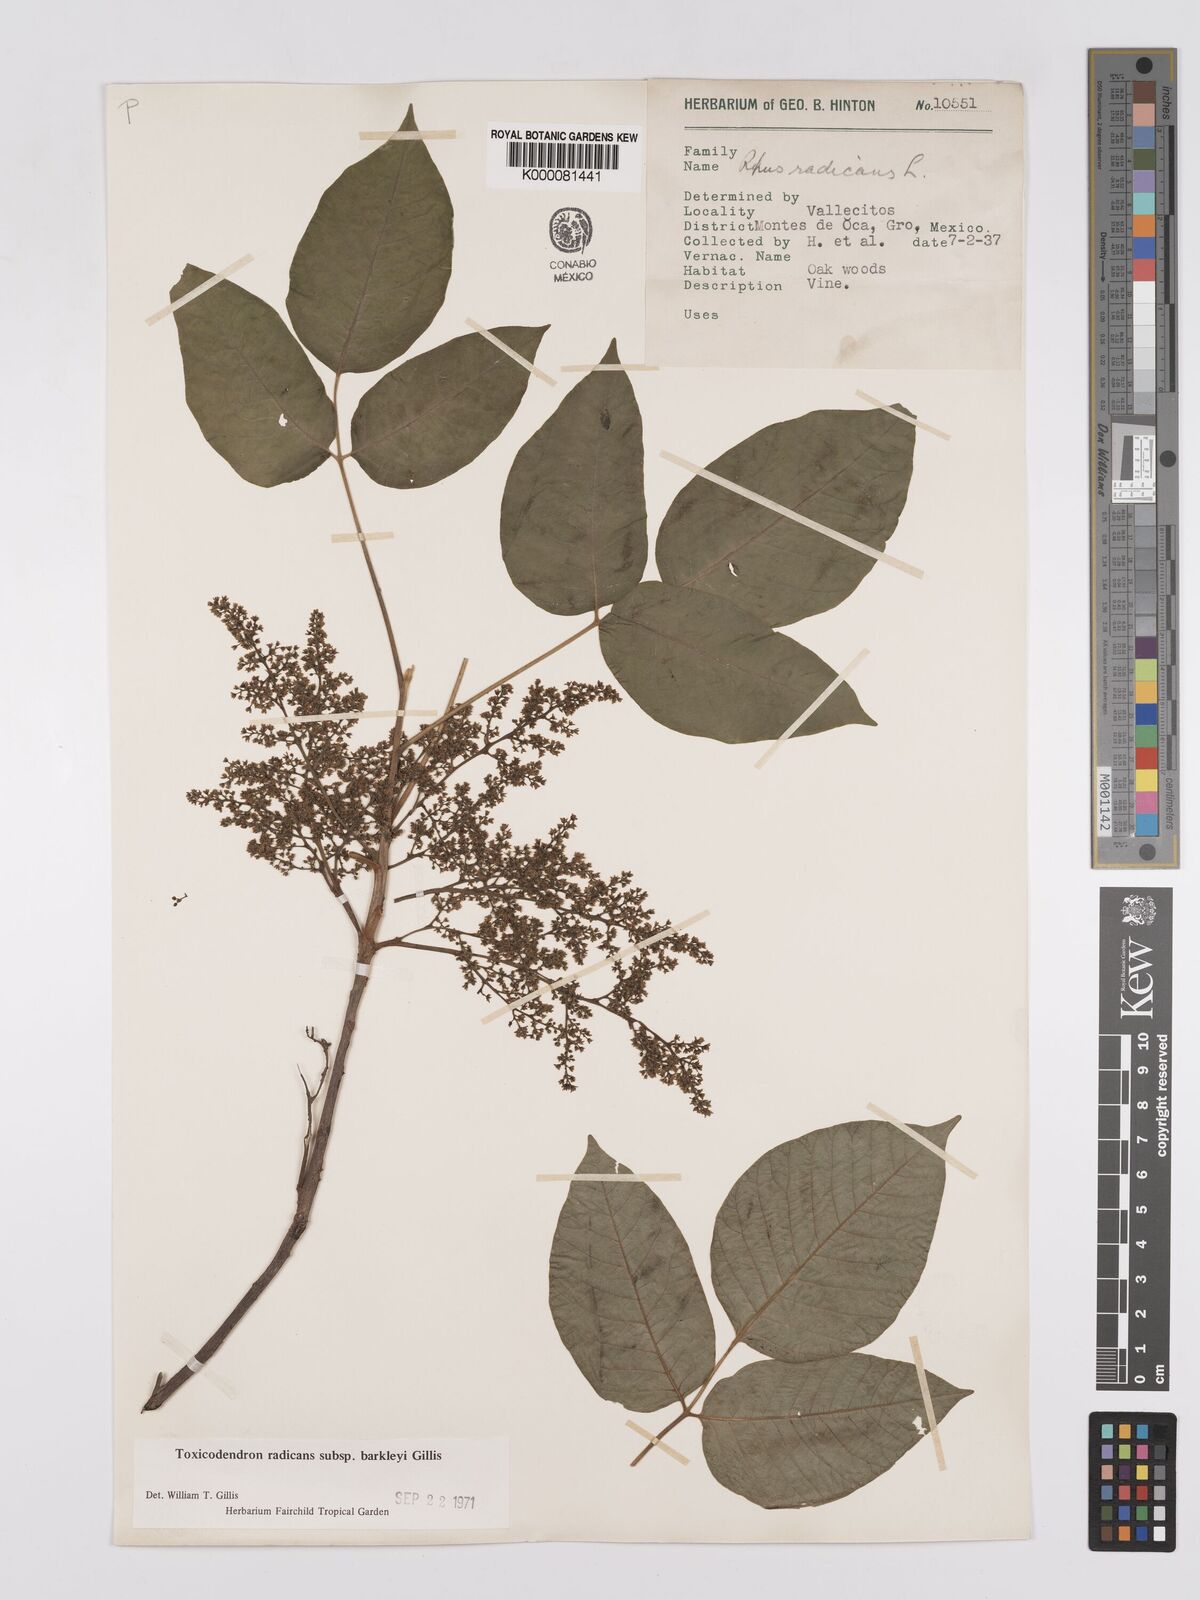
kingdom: Plantae
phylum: Tracheophyta
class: Magnoliopsida
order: Sapindales
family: Anacardiaceae
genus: Toxicodendron
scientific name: Toxicodendron radicans
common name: Poison ivy
